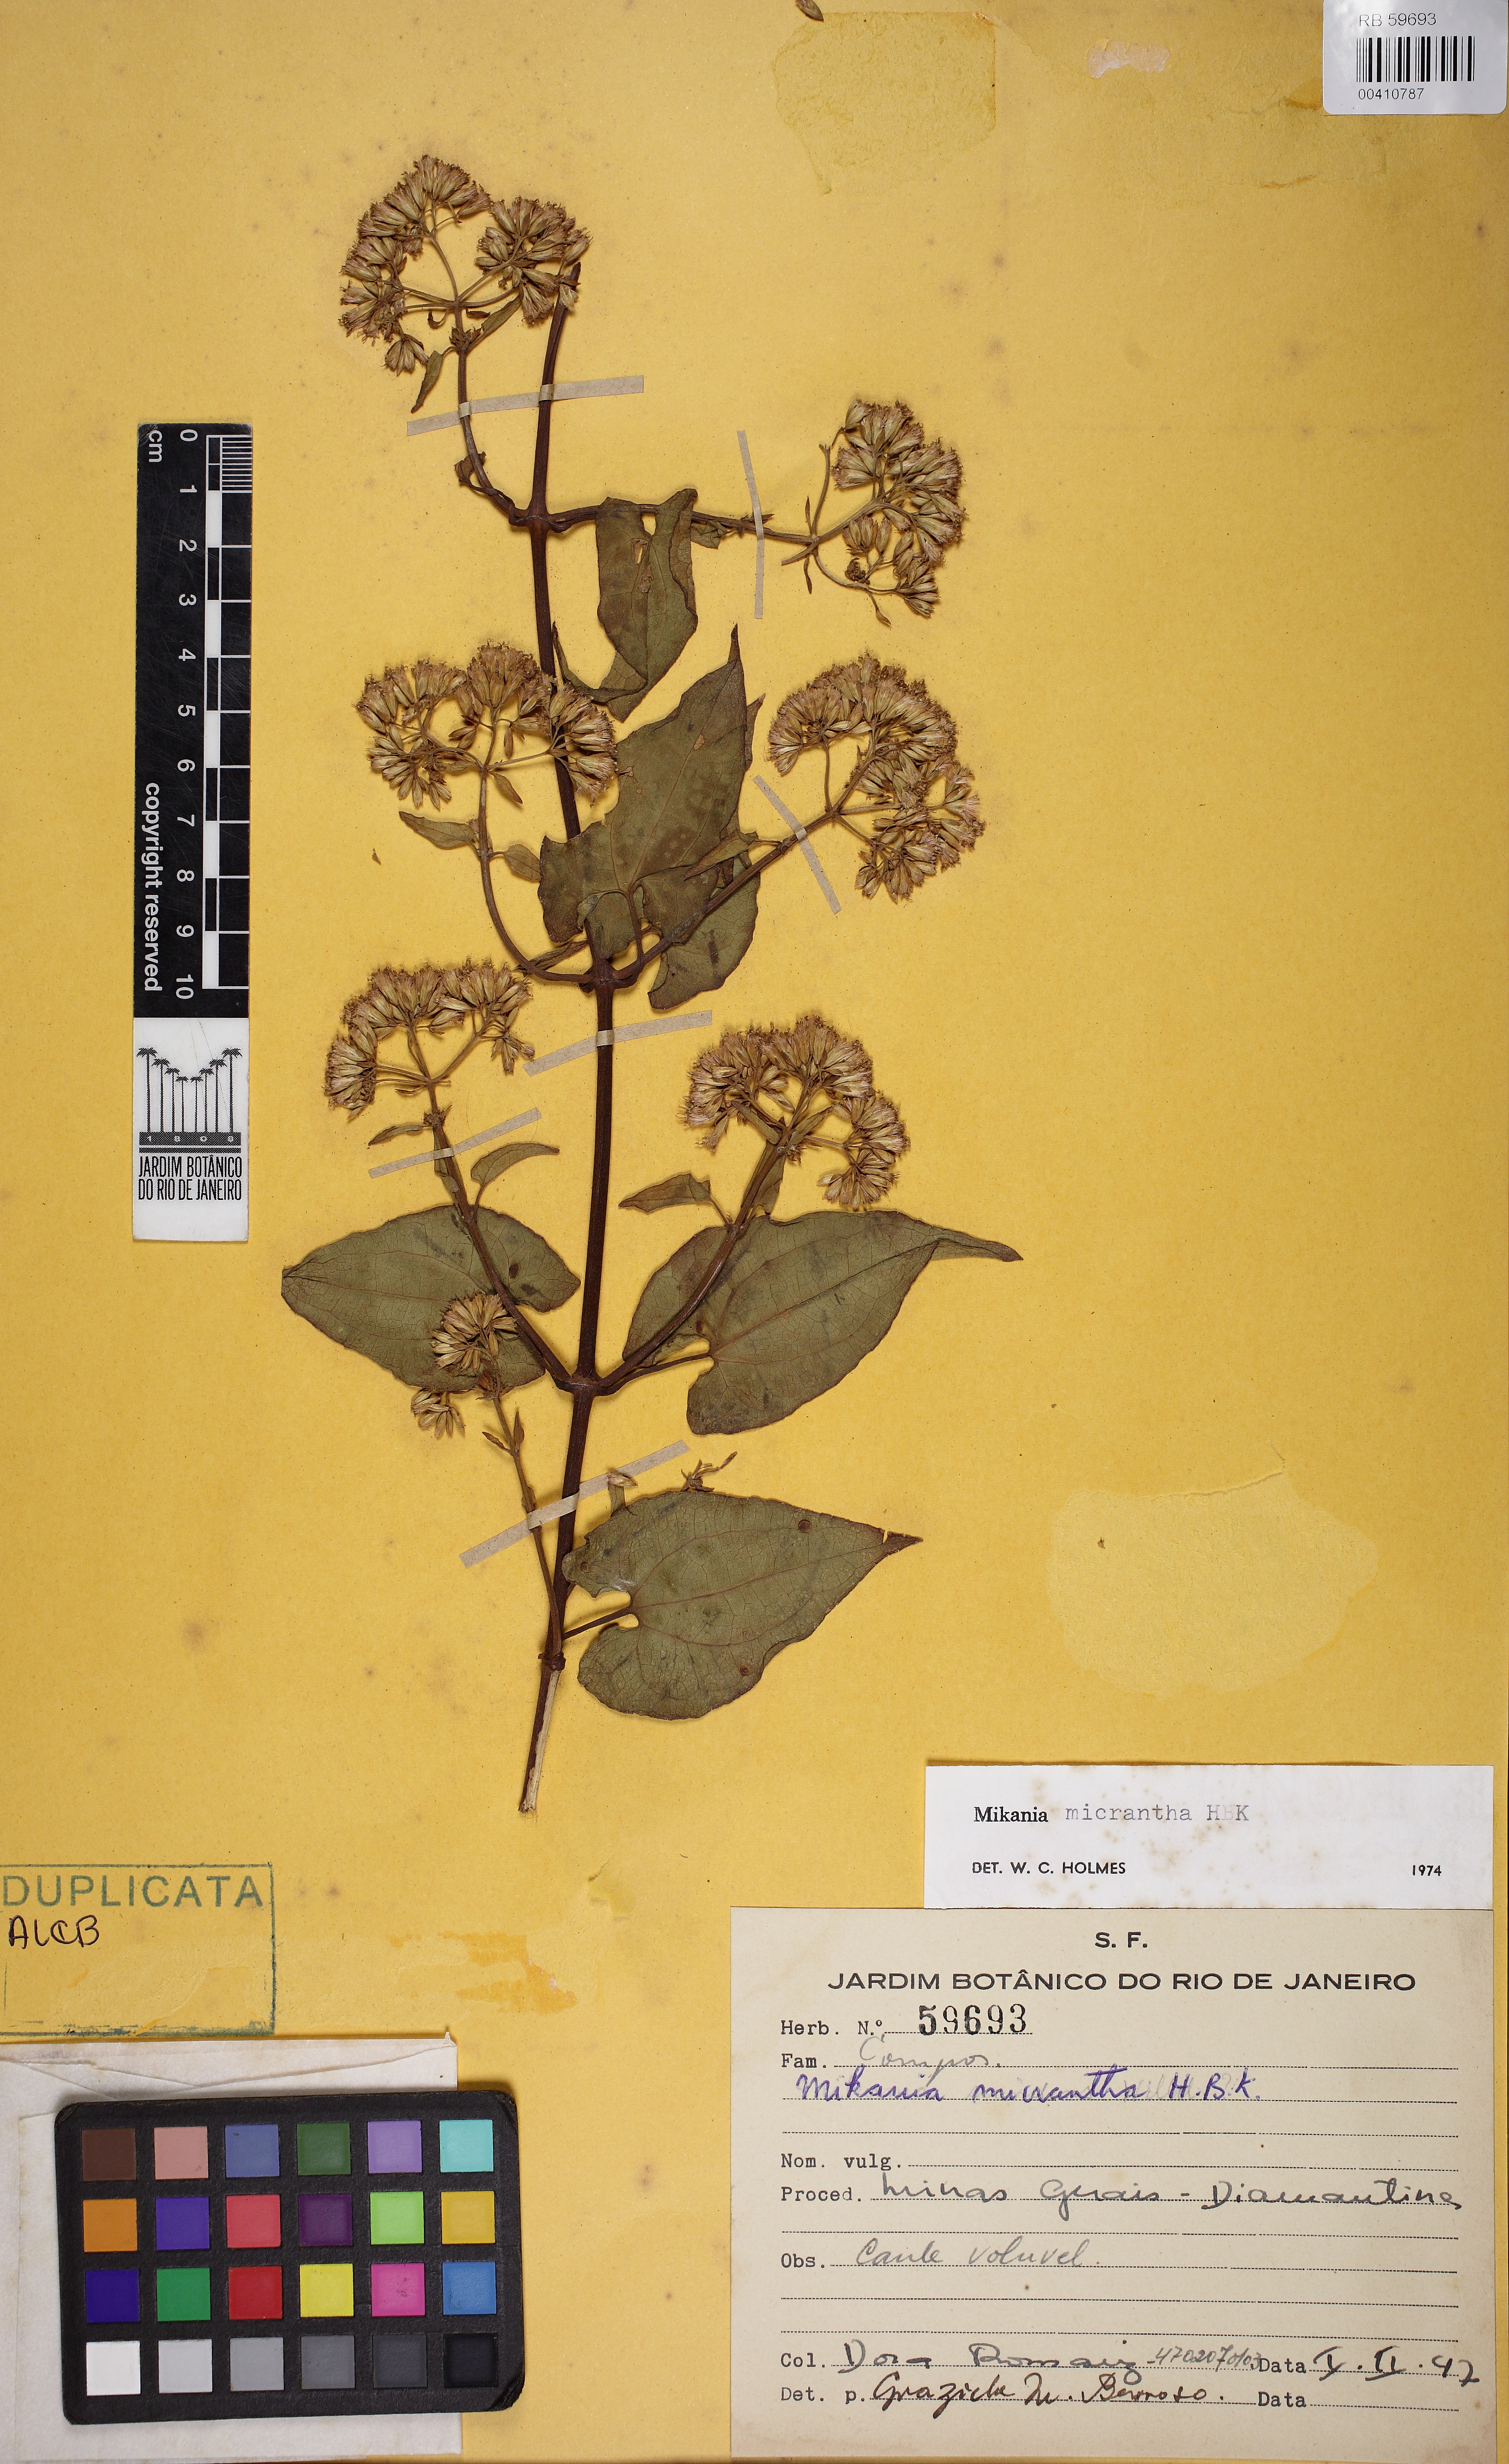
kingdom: Plantae
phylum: Tracheophyta
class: Magnoliopsida
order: Asterales
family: Asteraceae
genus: Mikania
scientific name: Mikania micrantha
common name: Mile-a-minute
